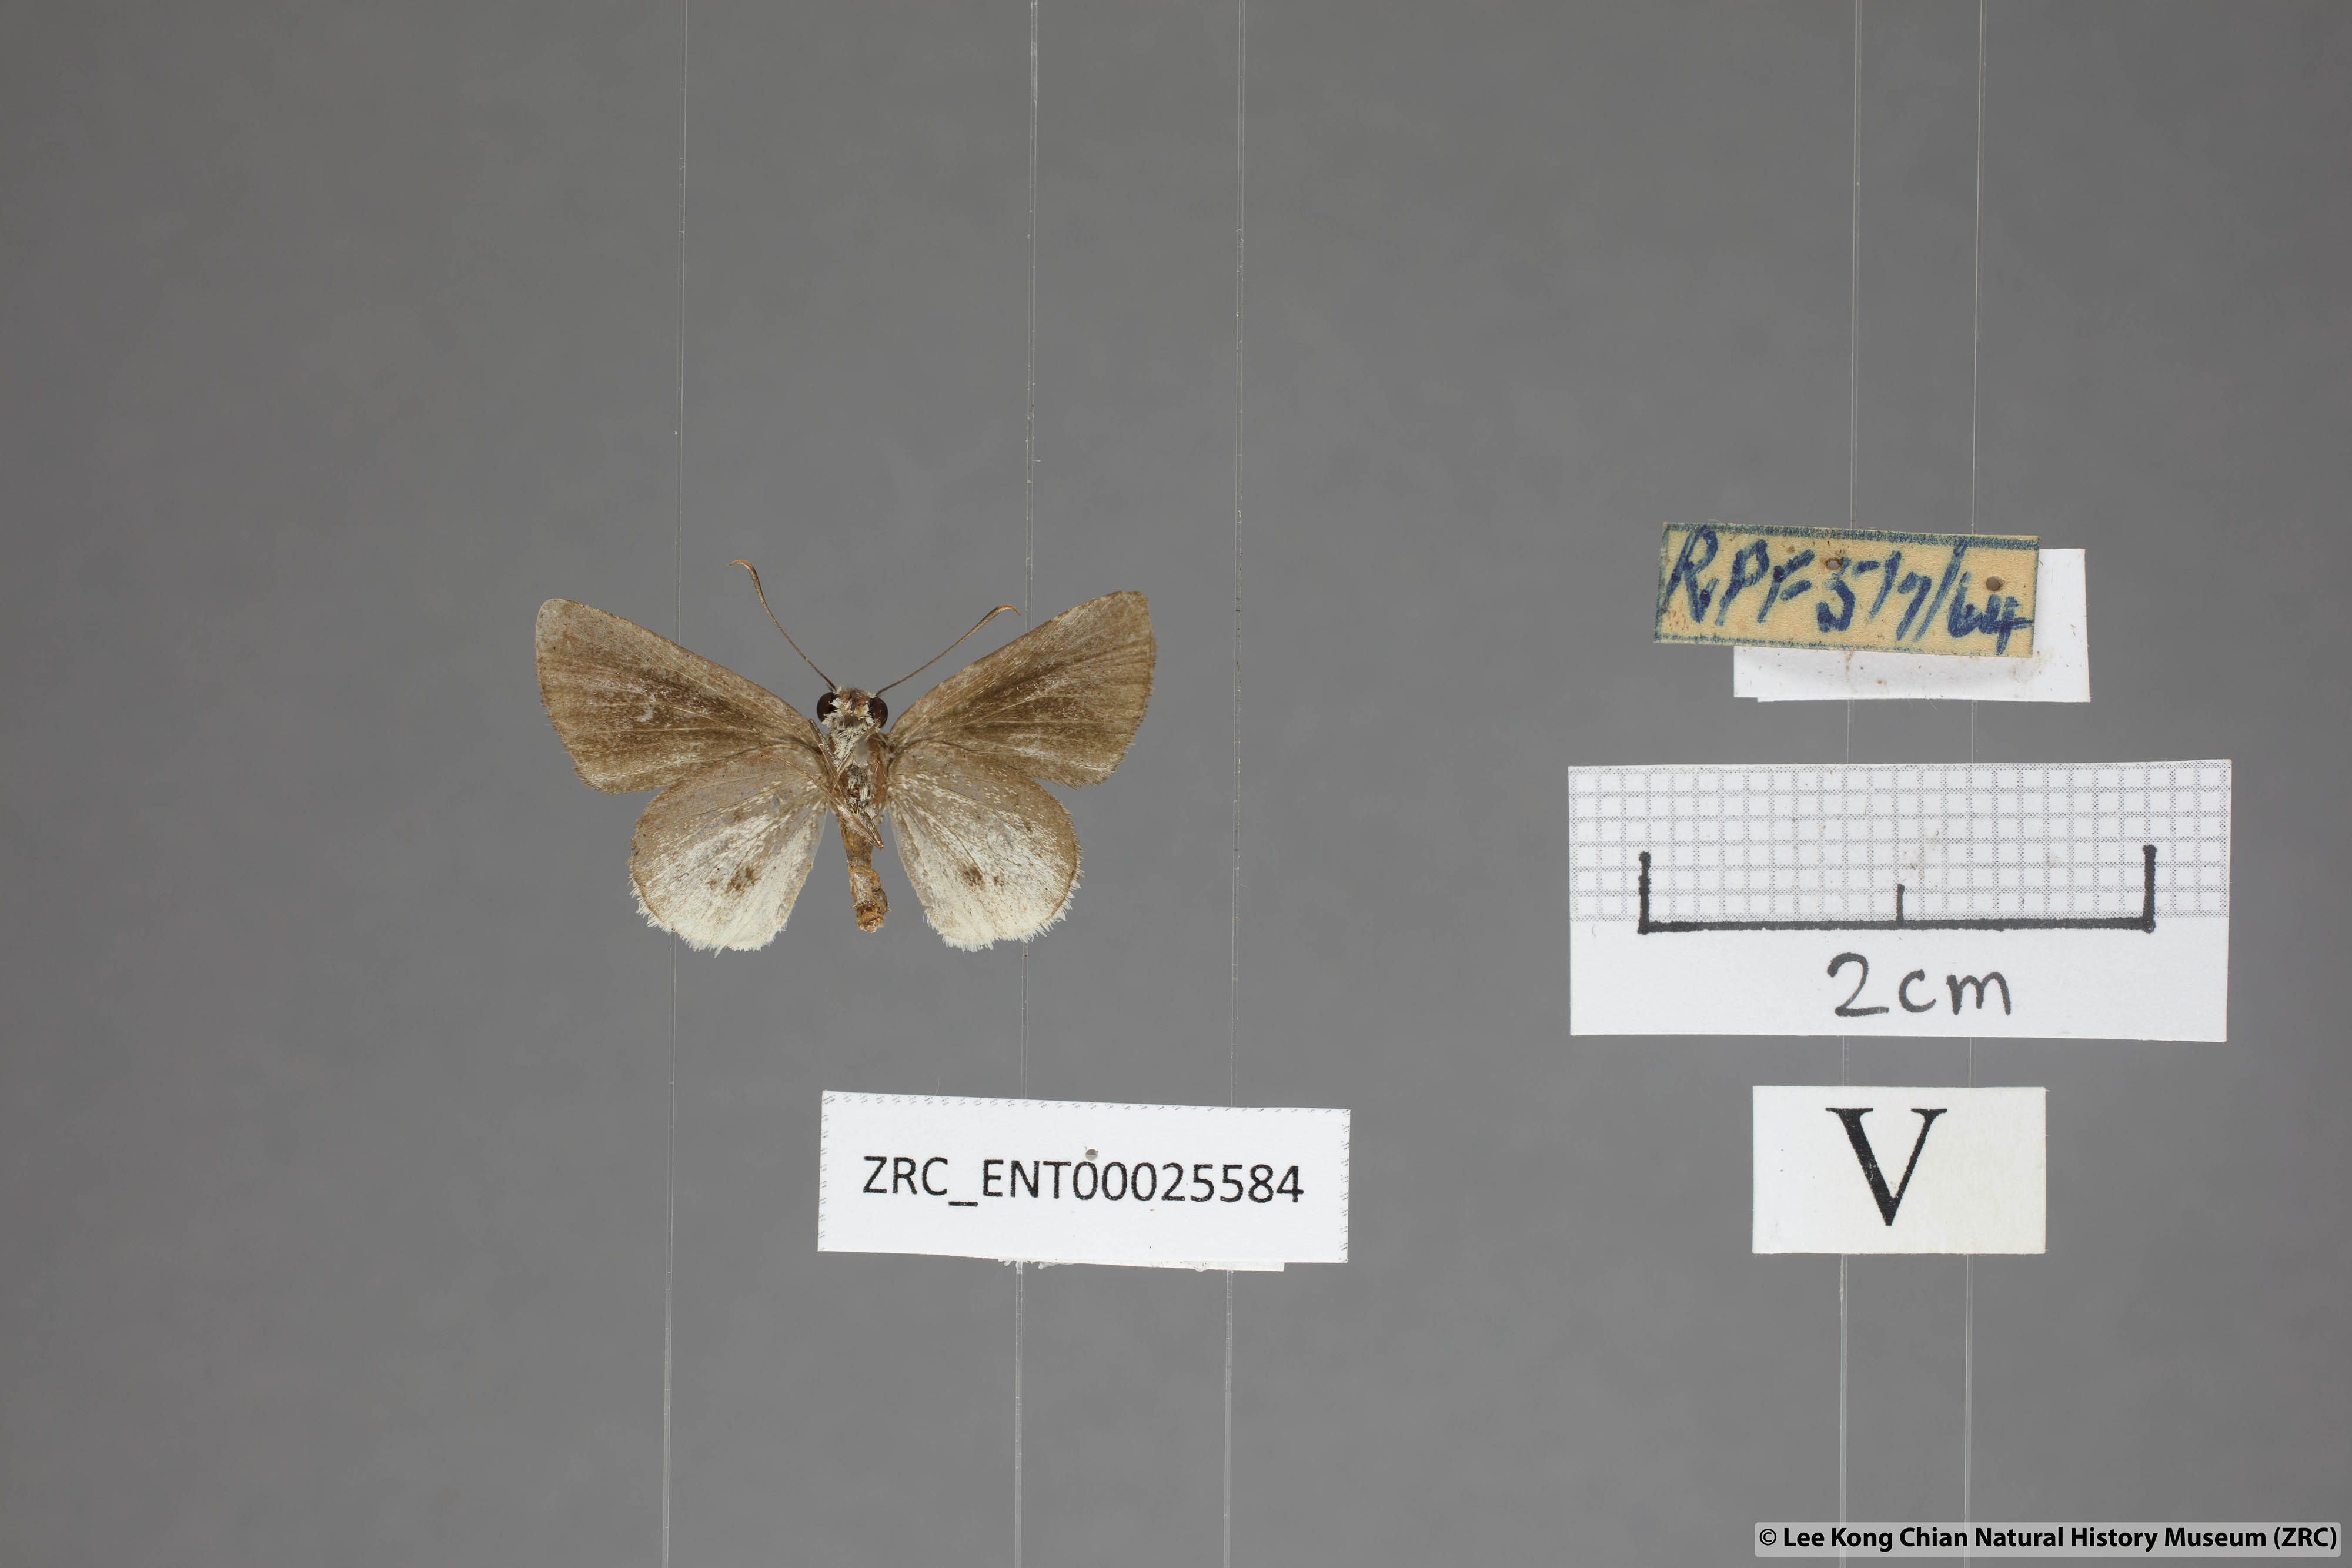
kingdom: Animalia
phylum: Arthropoda
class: Insecta
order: Lepidoptera
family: Hesperiidae
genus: Suastus
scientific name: Suastus everyx
